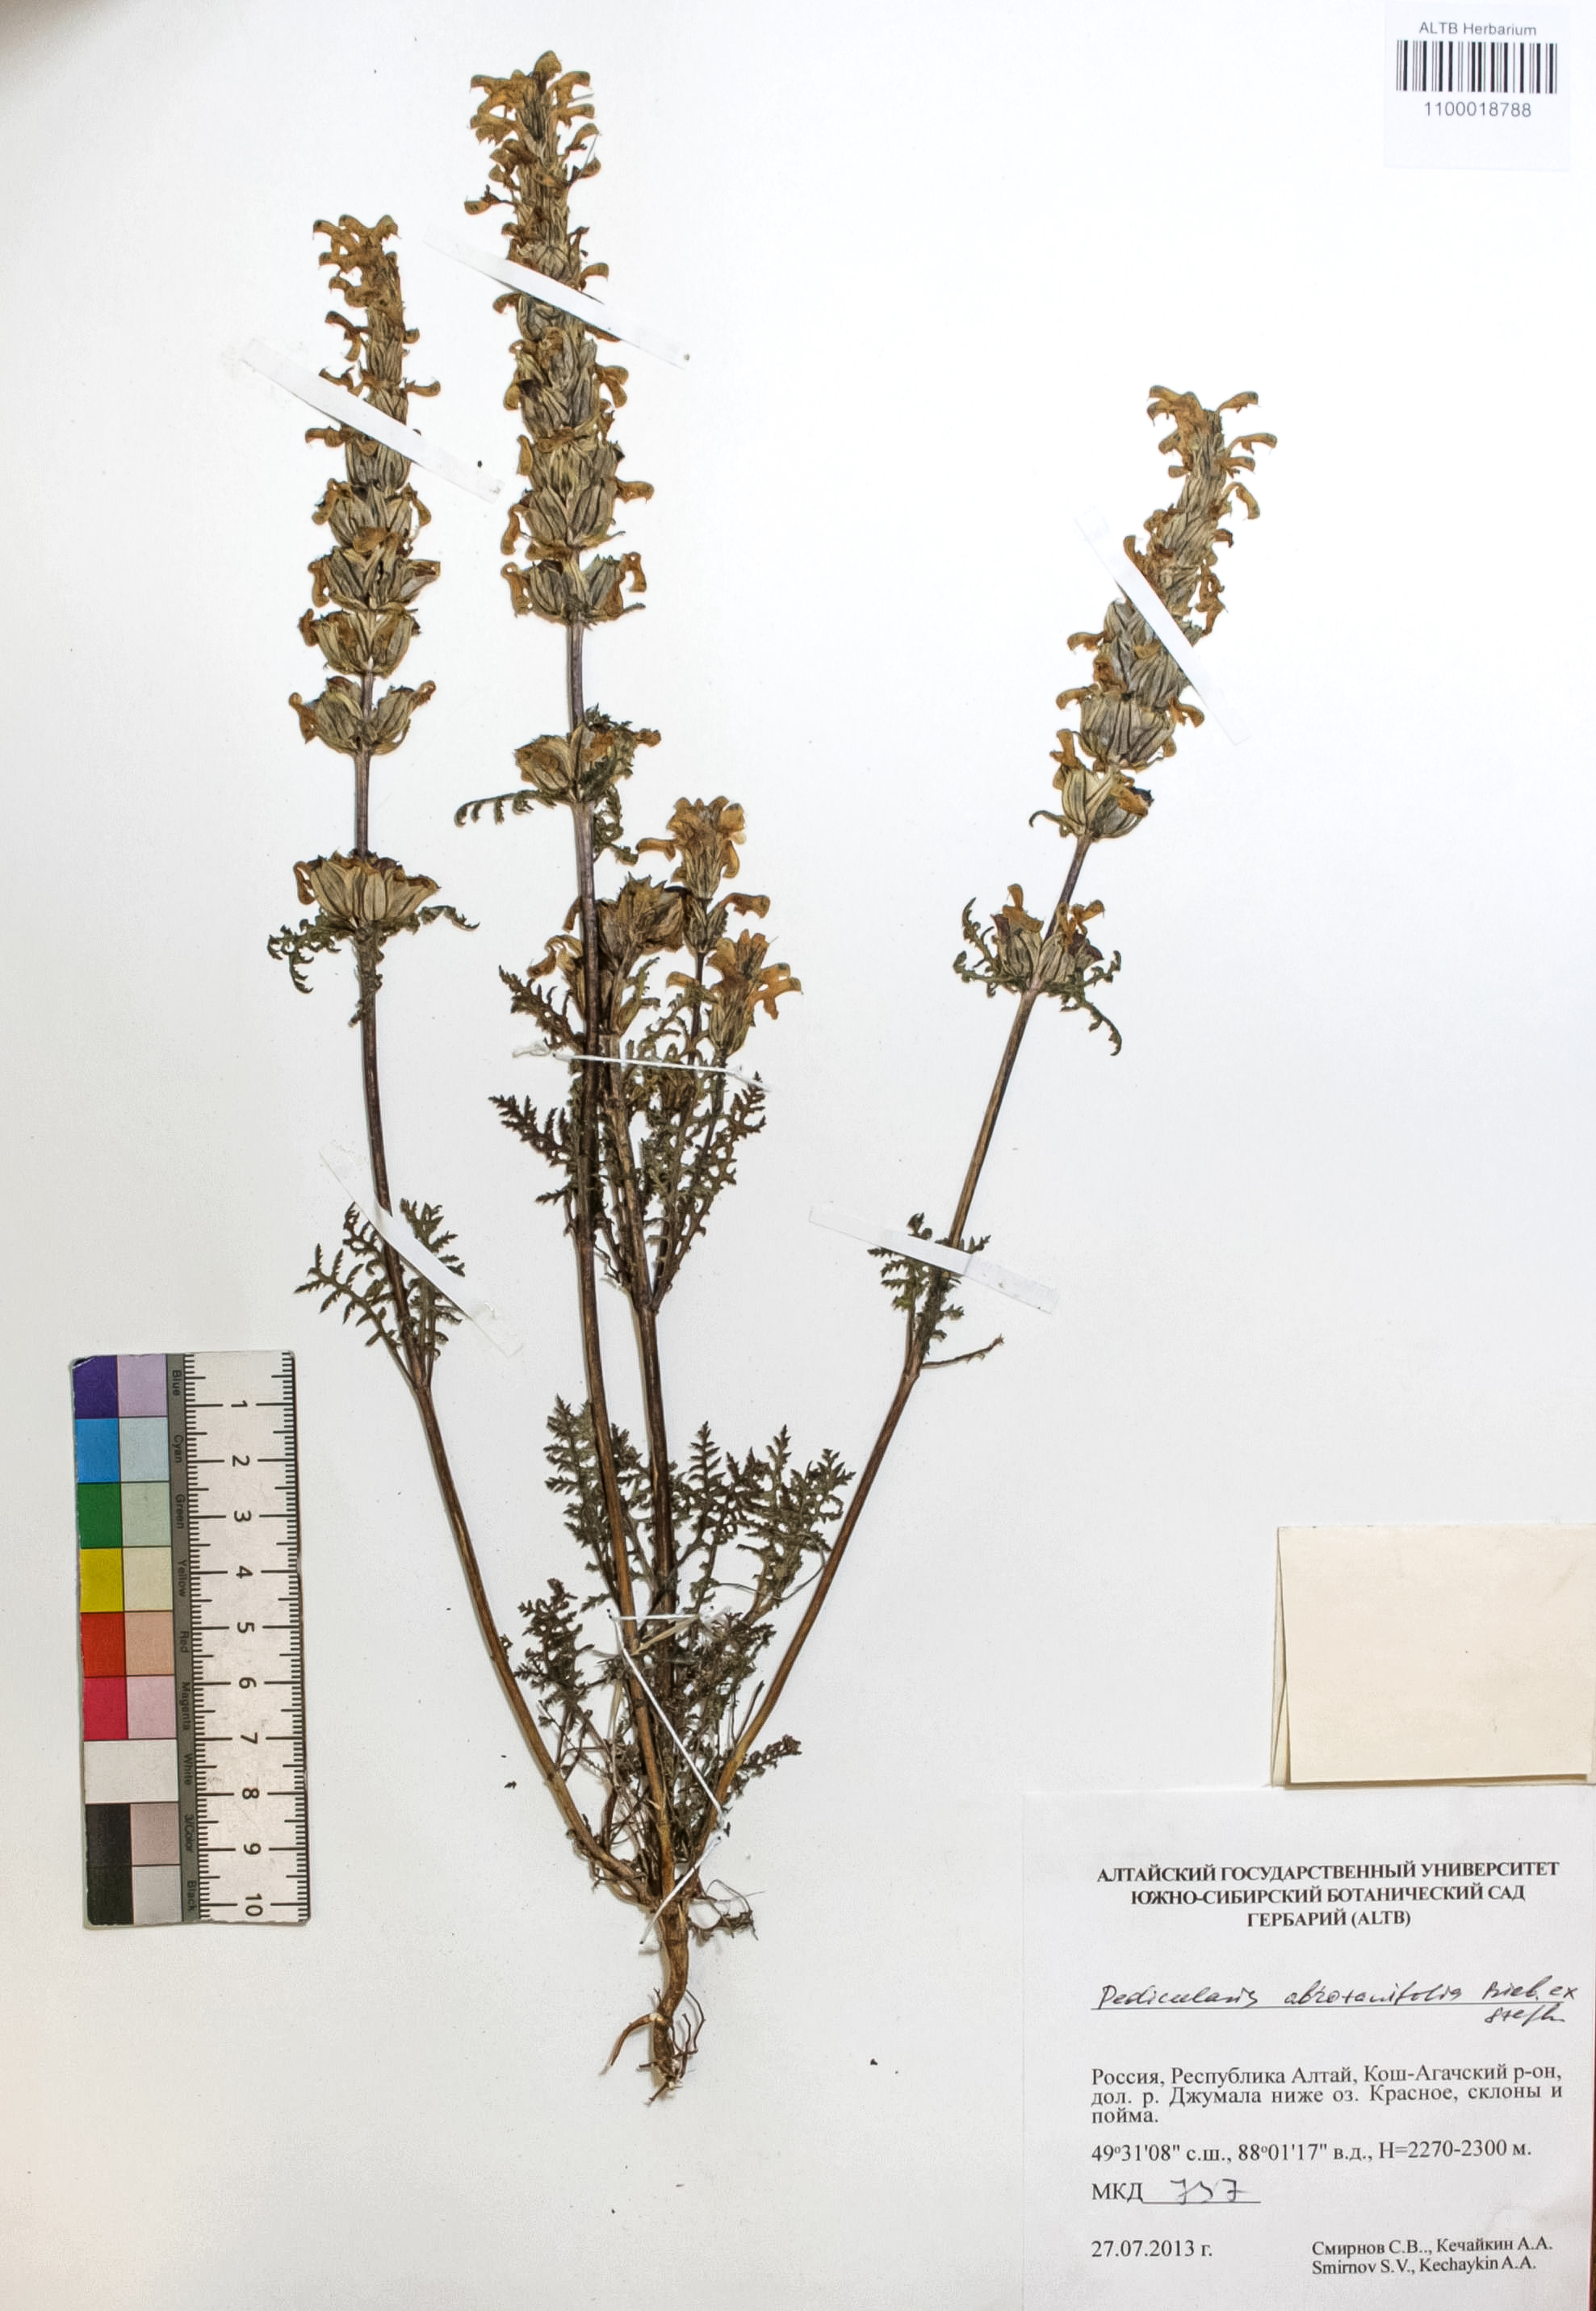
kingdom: Plantae
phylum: Tracheophyta
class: Magnoliopsida
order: Lamiales
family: Orobanchaceae
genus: Pedicularis
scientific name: Pedicularis abrotanifolia
